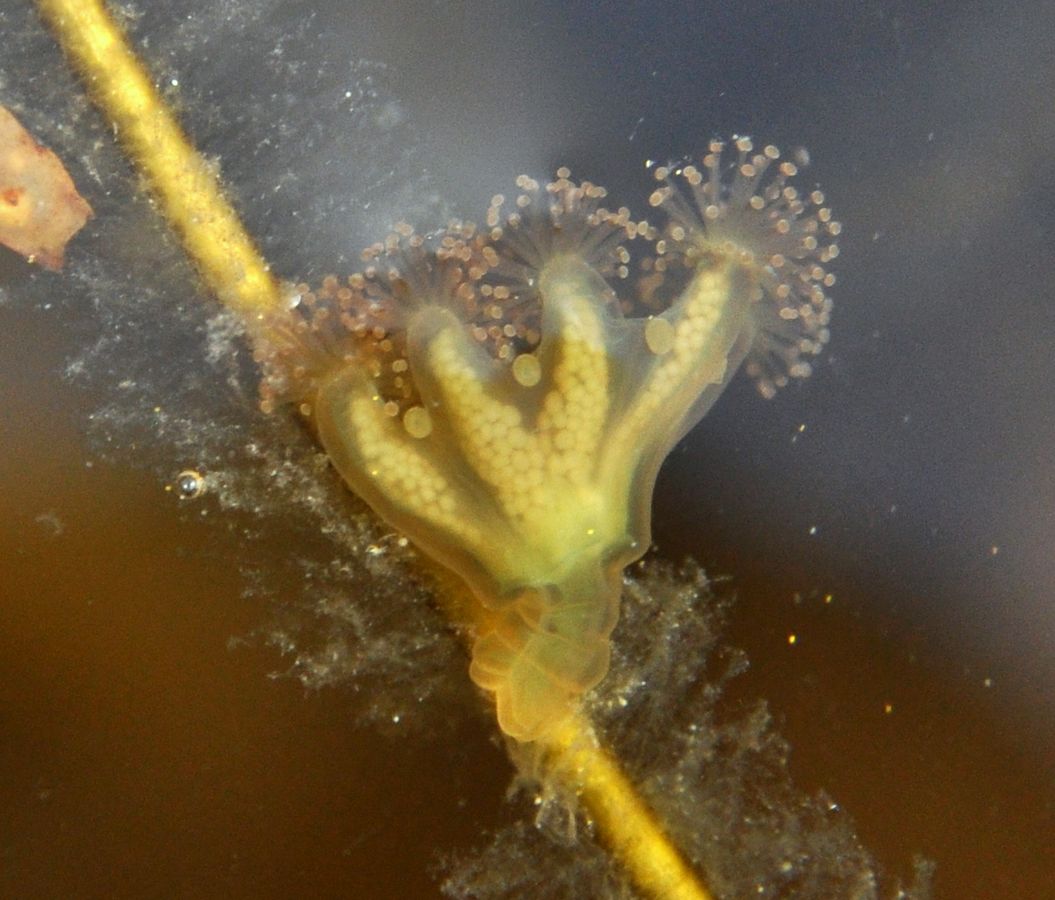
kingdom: Animalia
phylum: Cnidaria
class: Staurozoa
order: Stauromedusae
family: Haliclystidae
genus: Haliclystus
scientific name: Haliclystus auricula
